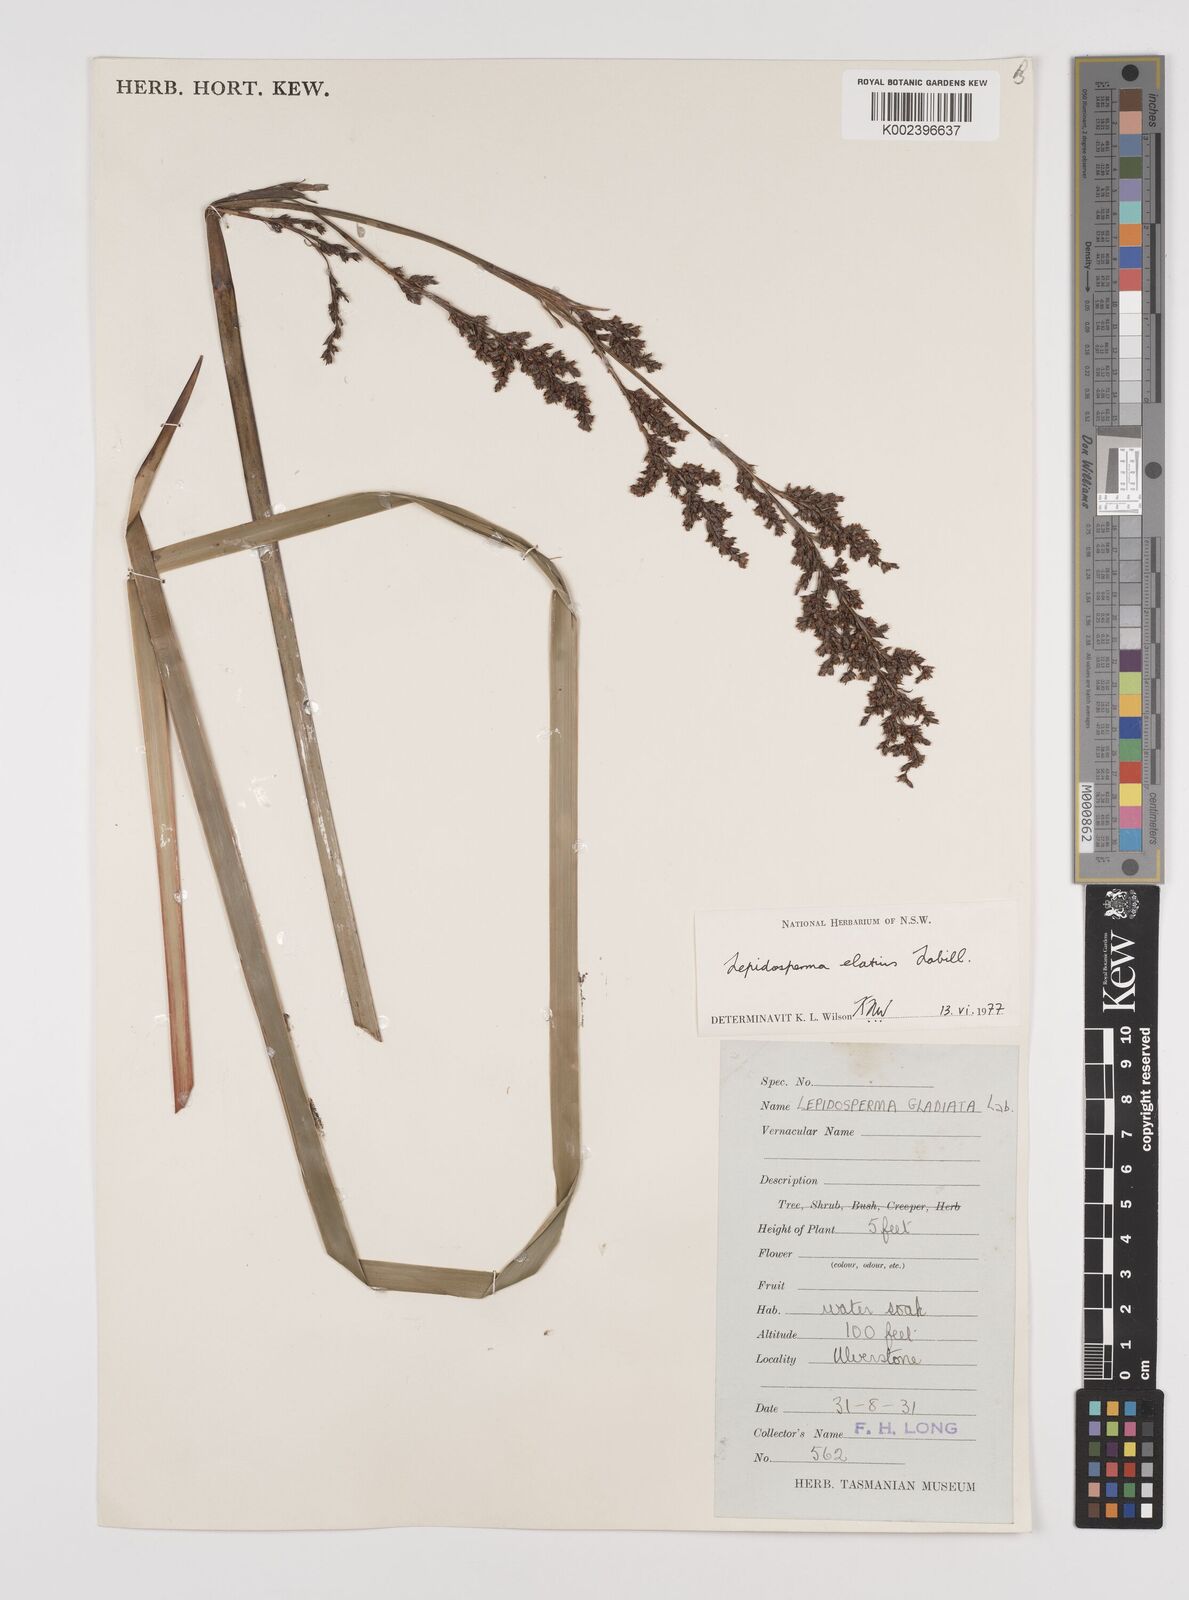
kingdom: Plantae
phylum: Tracheophyta
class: Liliopsida
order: Poales
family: Cyperaceae
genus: Lepidosperma
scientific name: Lepidosperma elatius
